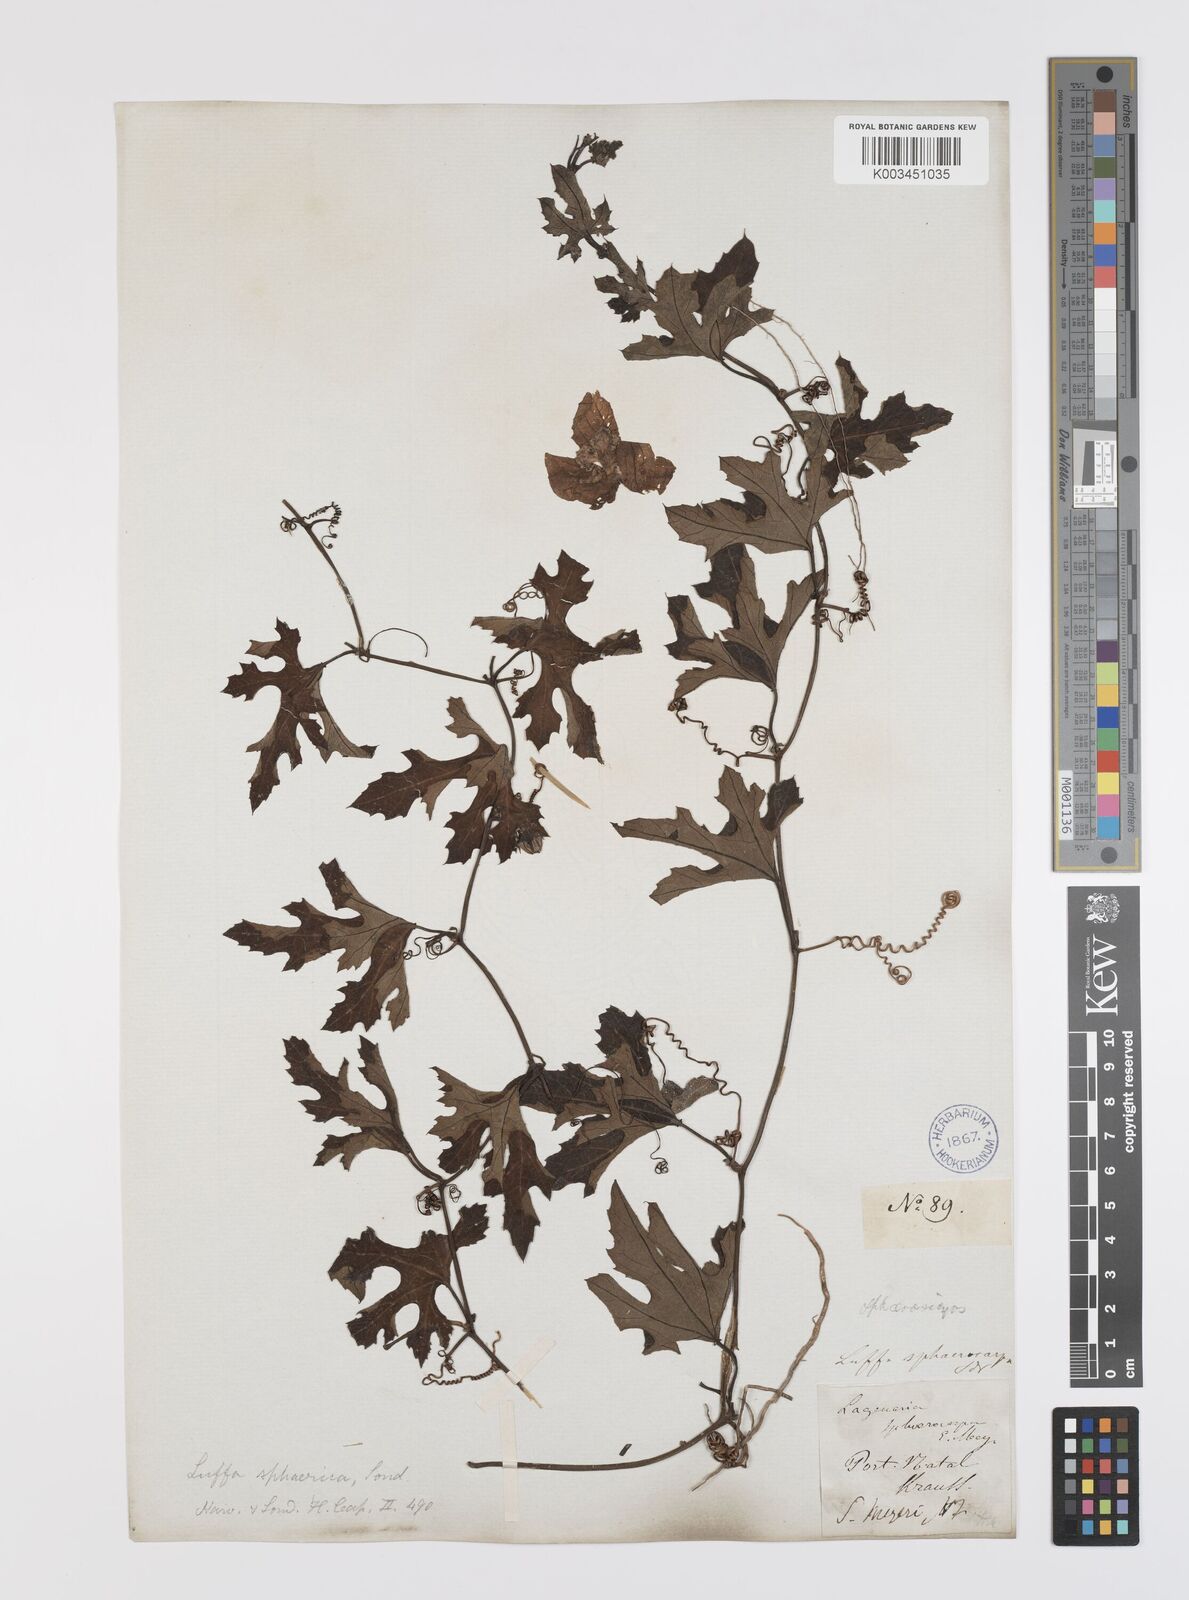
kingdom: Plantae
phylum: Tracheophyta
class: Magnoliopsida
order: Cucurbitales
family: Cucurbitaceae
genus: Lagenaria
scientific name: Lagenaria sphaerica
